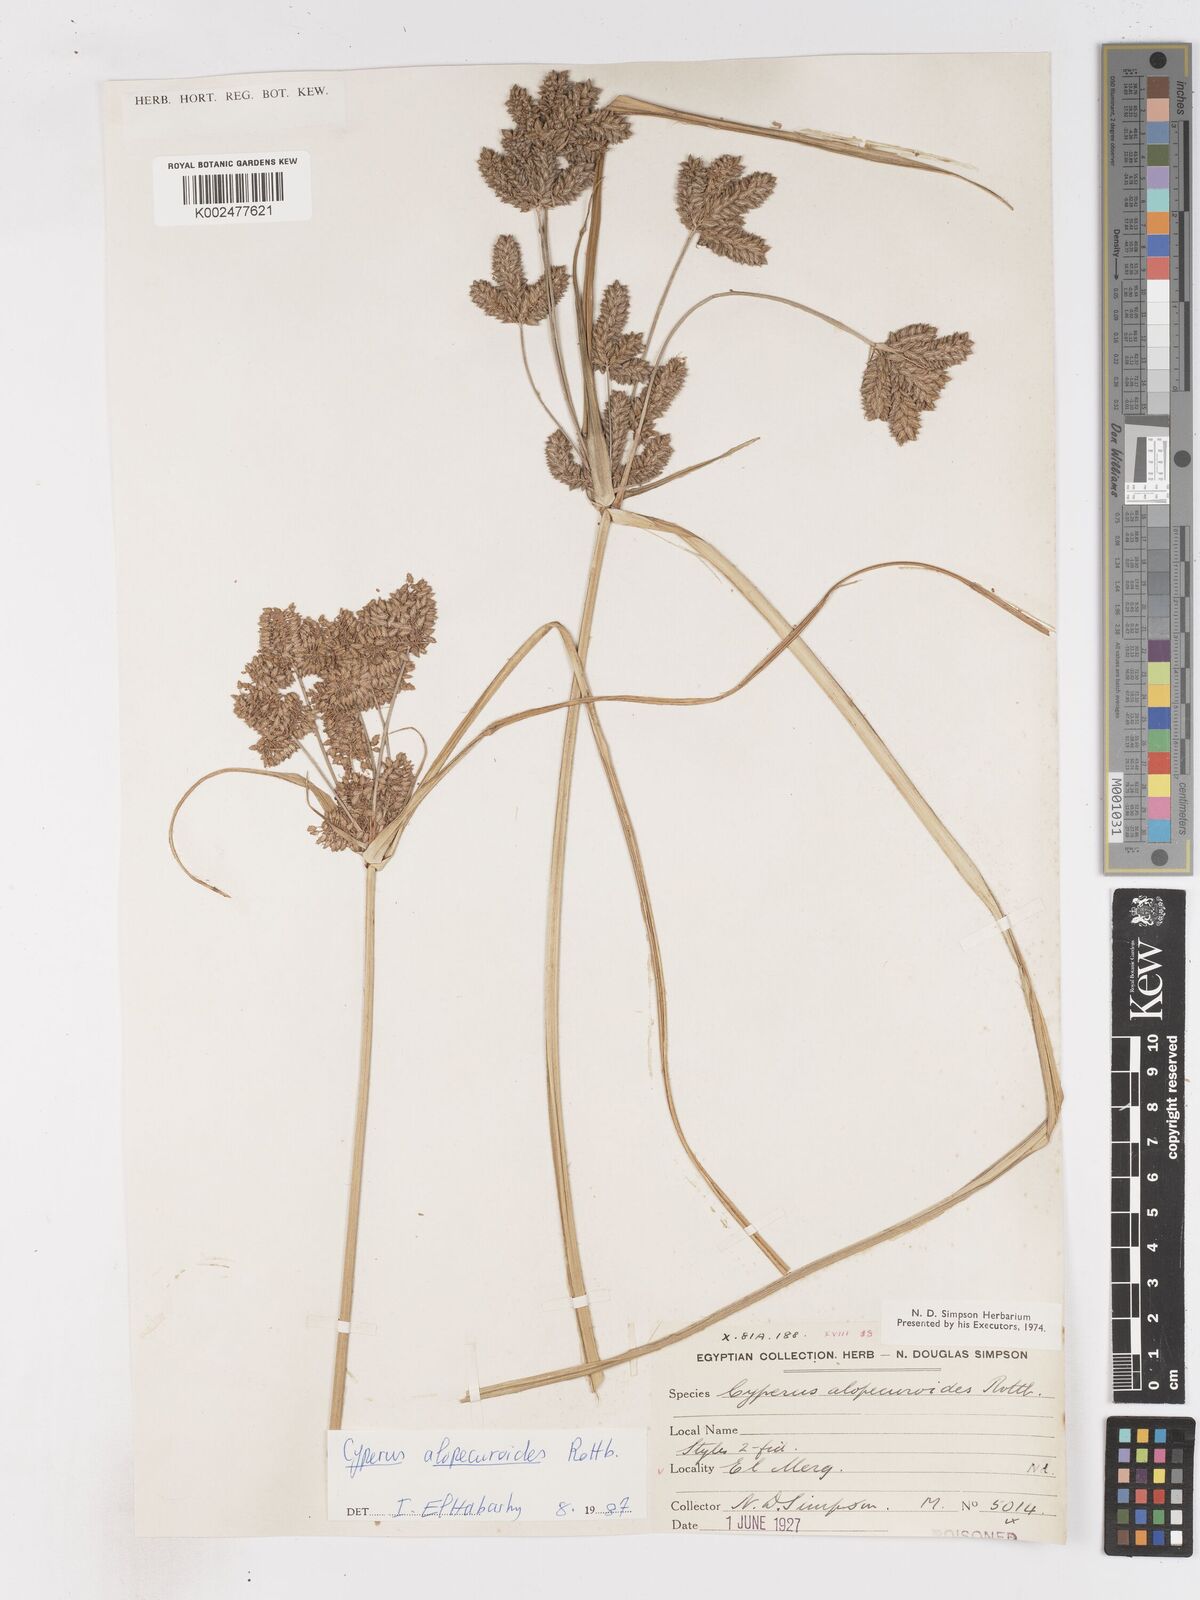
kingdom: Plantae
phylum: Tracheophyta
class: Liliopsida
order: Poales
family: Cyperaceae
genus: Cyperus
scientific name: Cyperus alopecuroides
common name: Foxtail flatsedge
